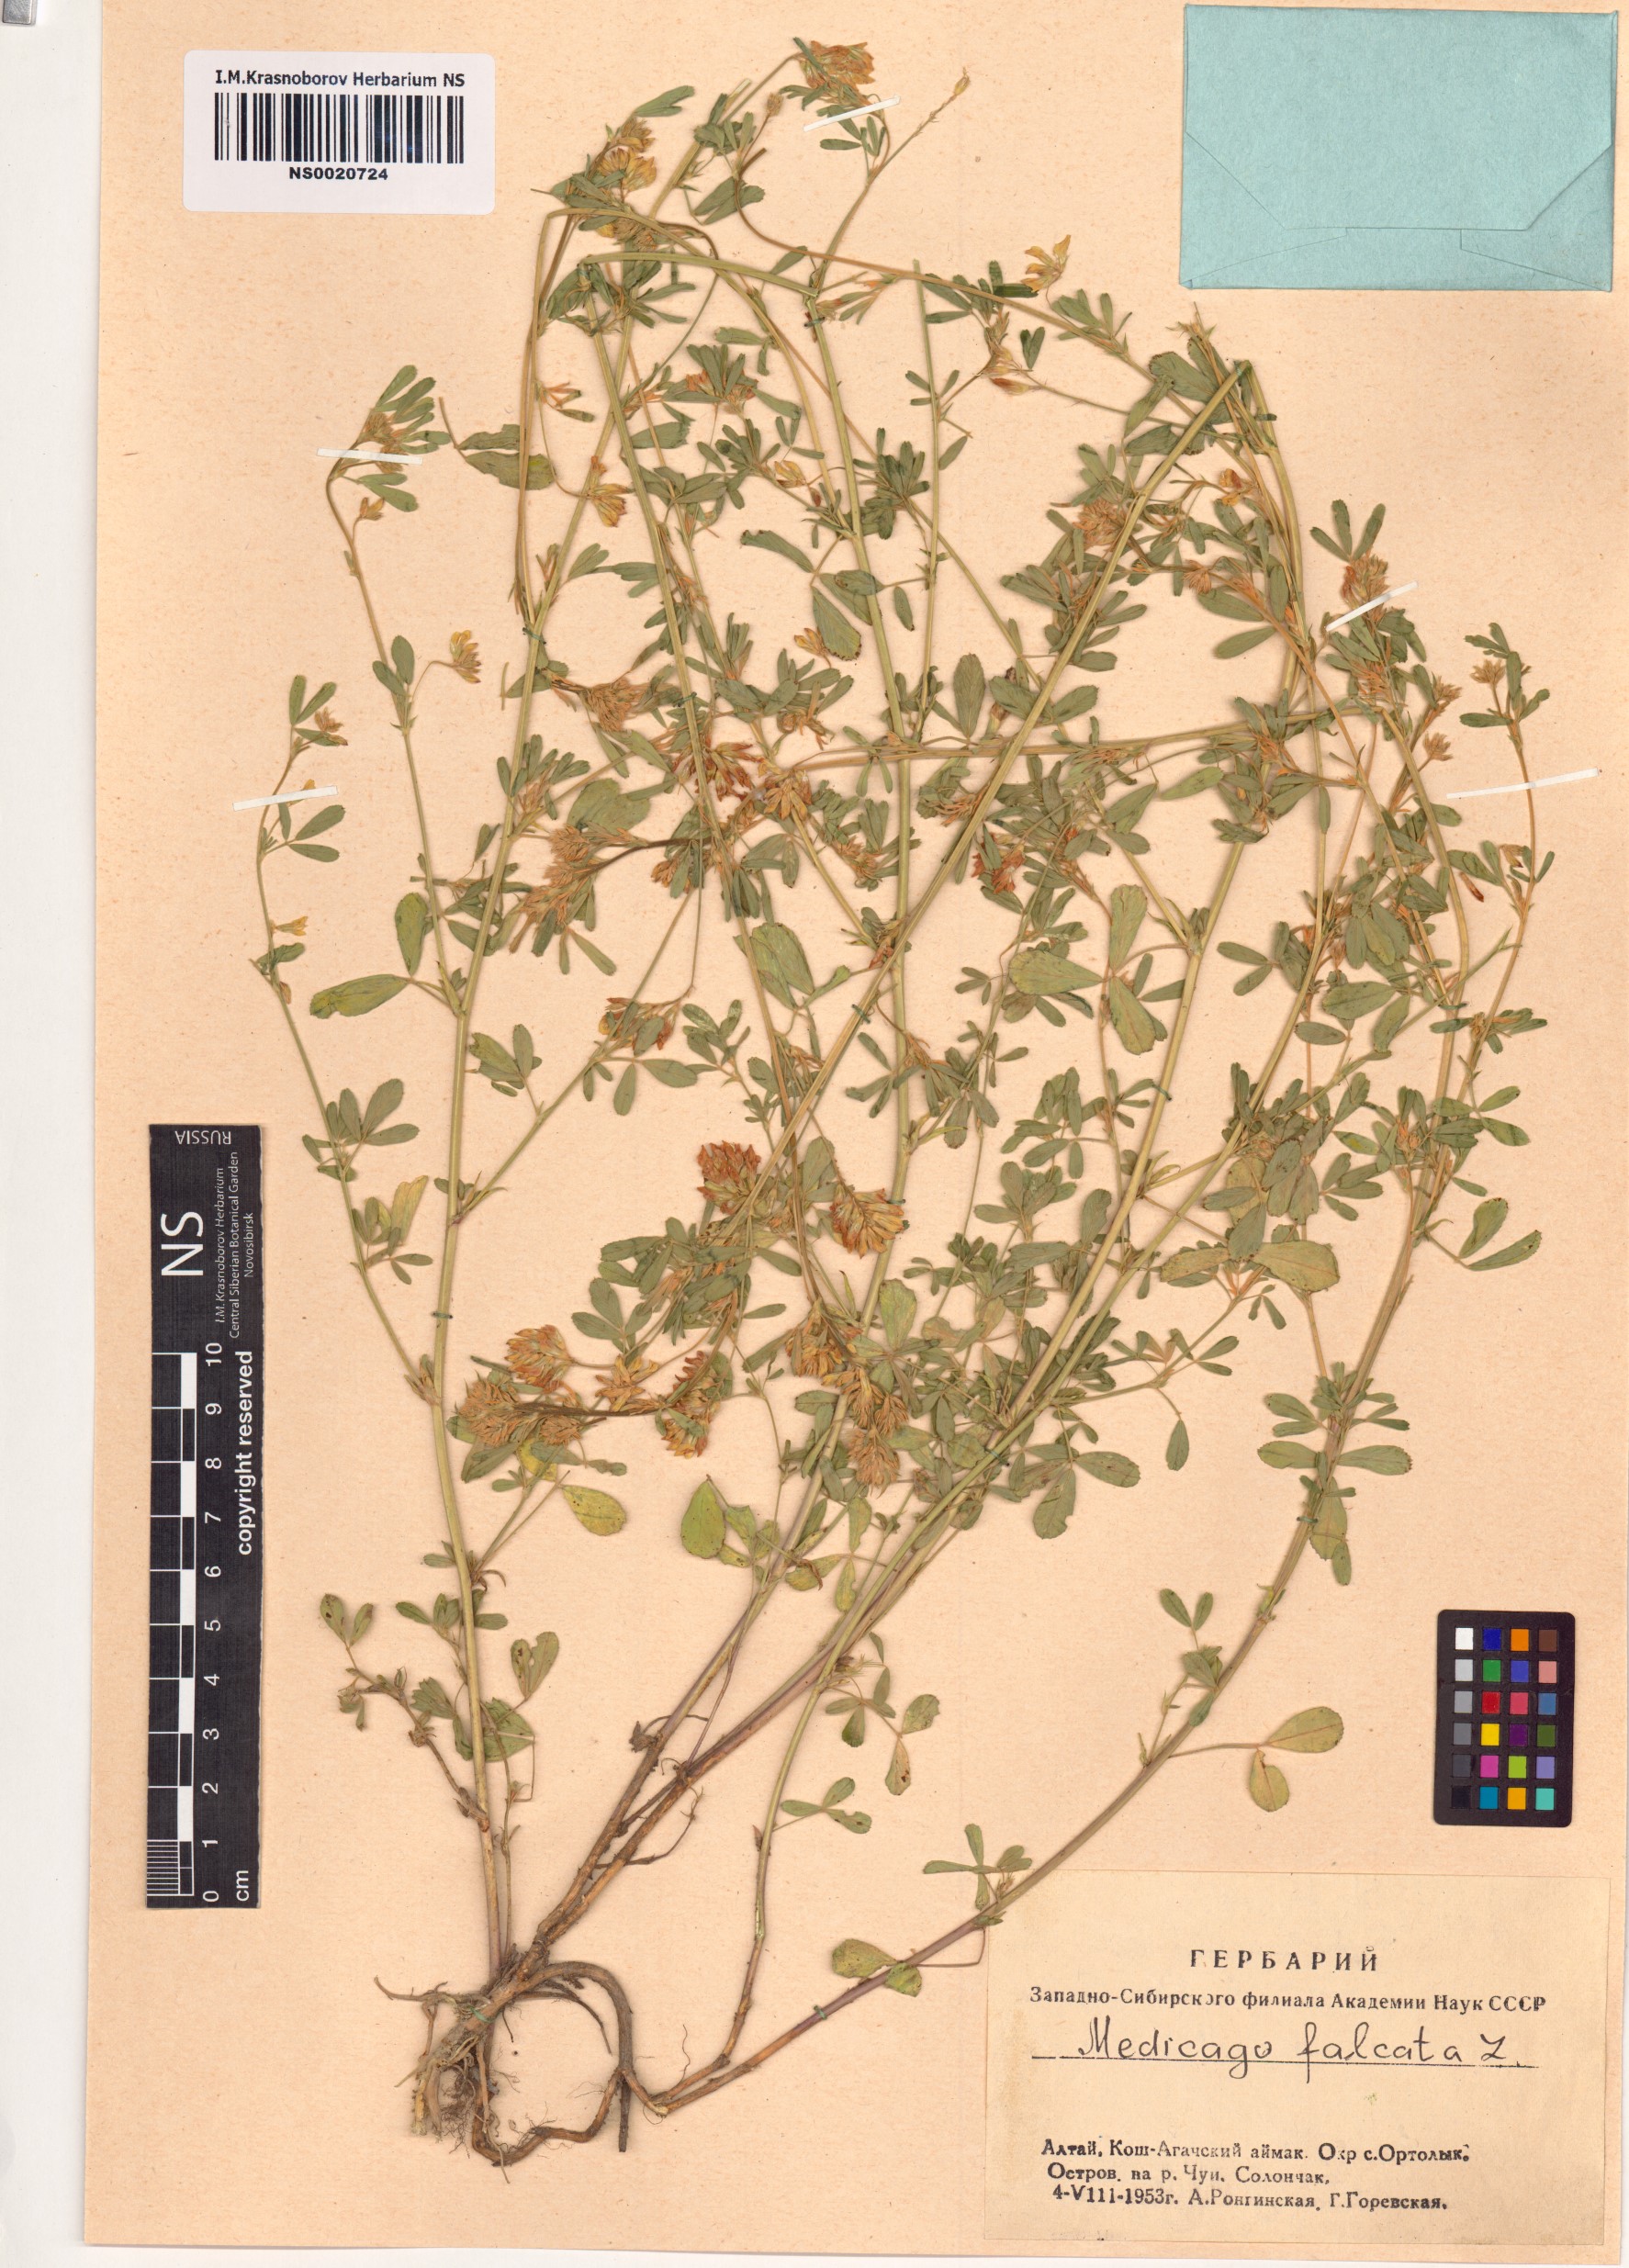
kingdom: Plantae
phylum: Tracheophyta
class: Magnoliopsida
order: Fabales
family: Fabaceae
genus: Medicago
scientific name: Medicago falcata
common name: Sickle medick
